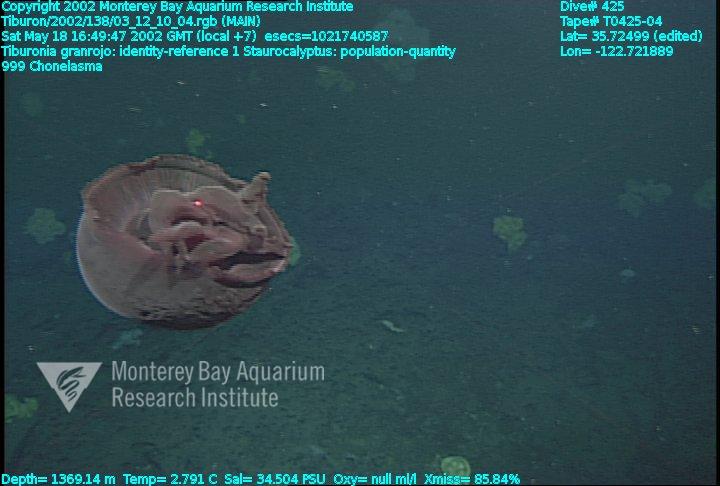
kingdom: Animalia
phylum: Porifera
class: Hexactinellida
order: Sceptrulophora
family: Euretidae
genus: Chonelasma
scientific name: Chonelasma
